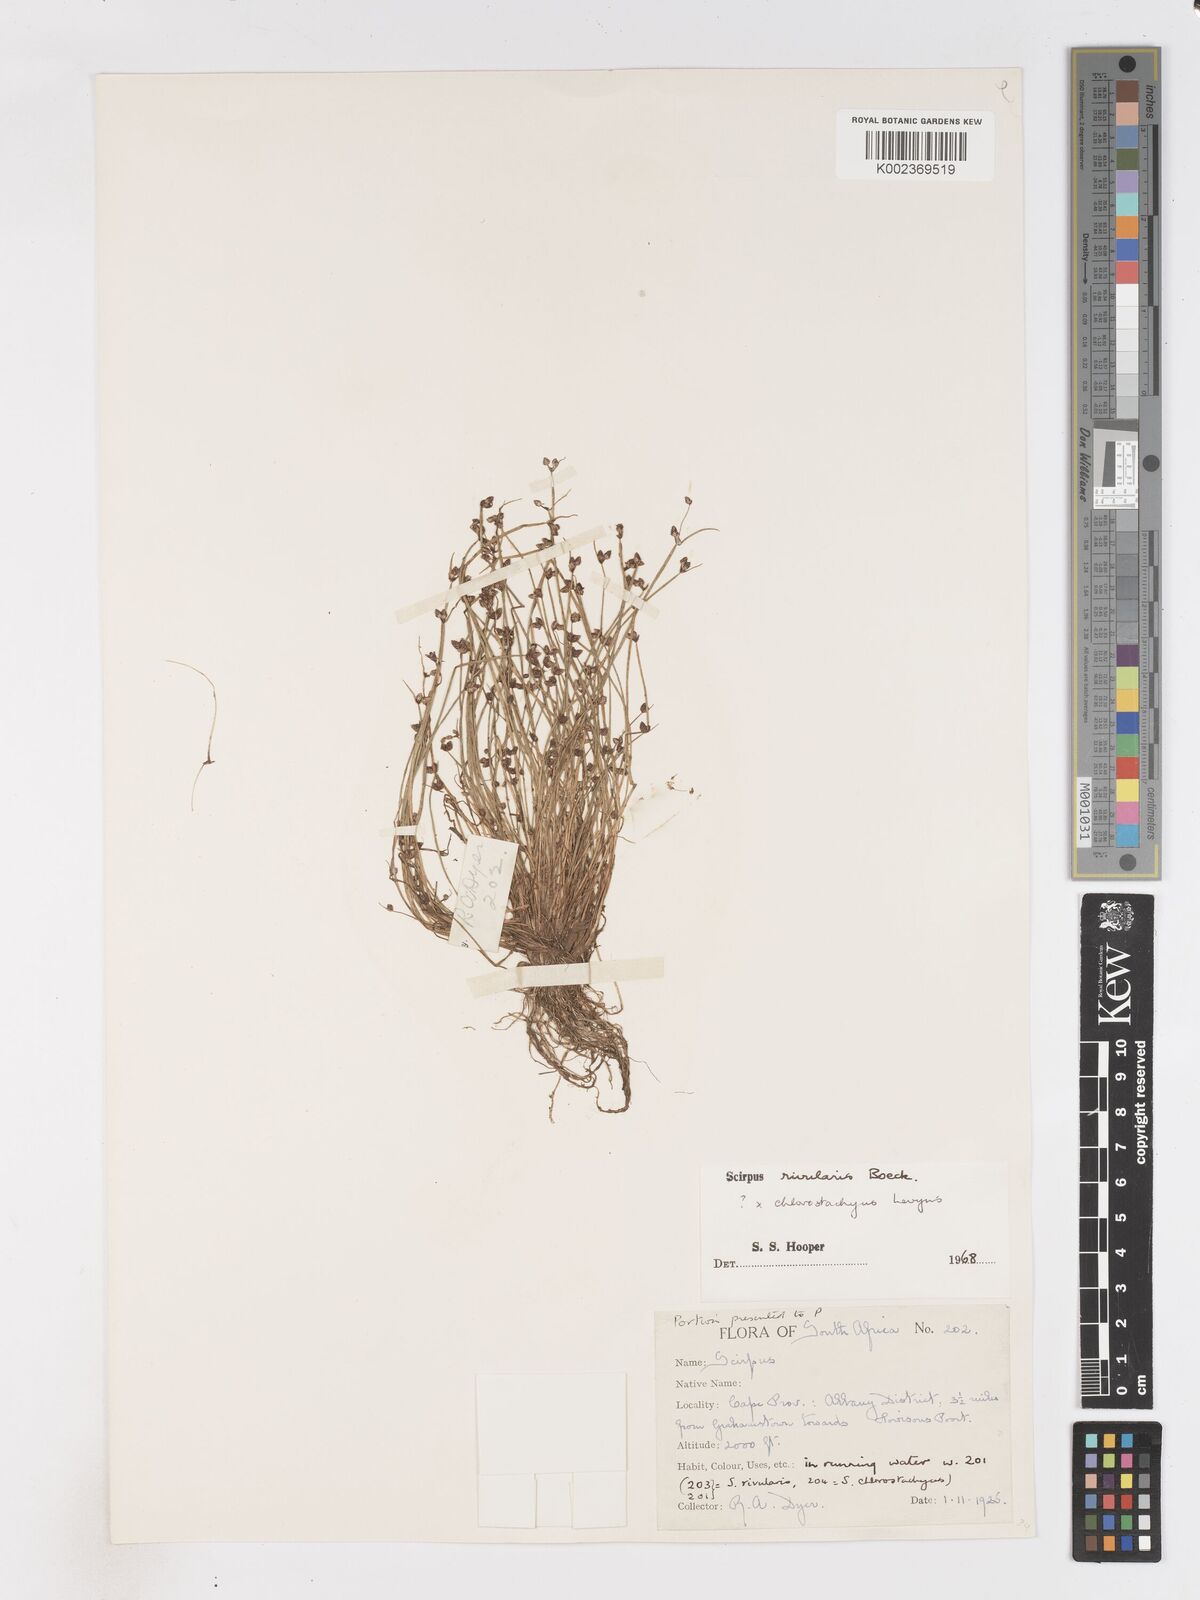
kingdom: Plantae
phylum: Tracheophyta
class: Liliopsida
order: Poales
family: Cyperaceae
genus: Isolepis
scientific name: Isolepis natans
